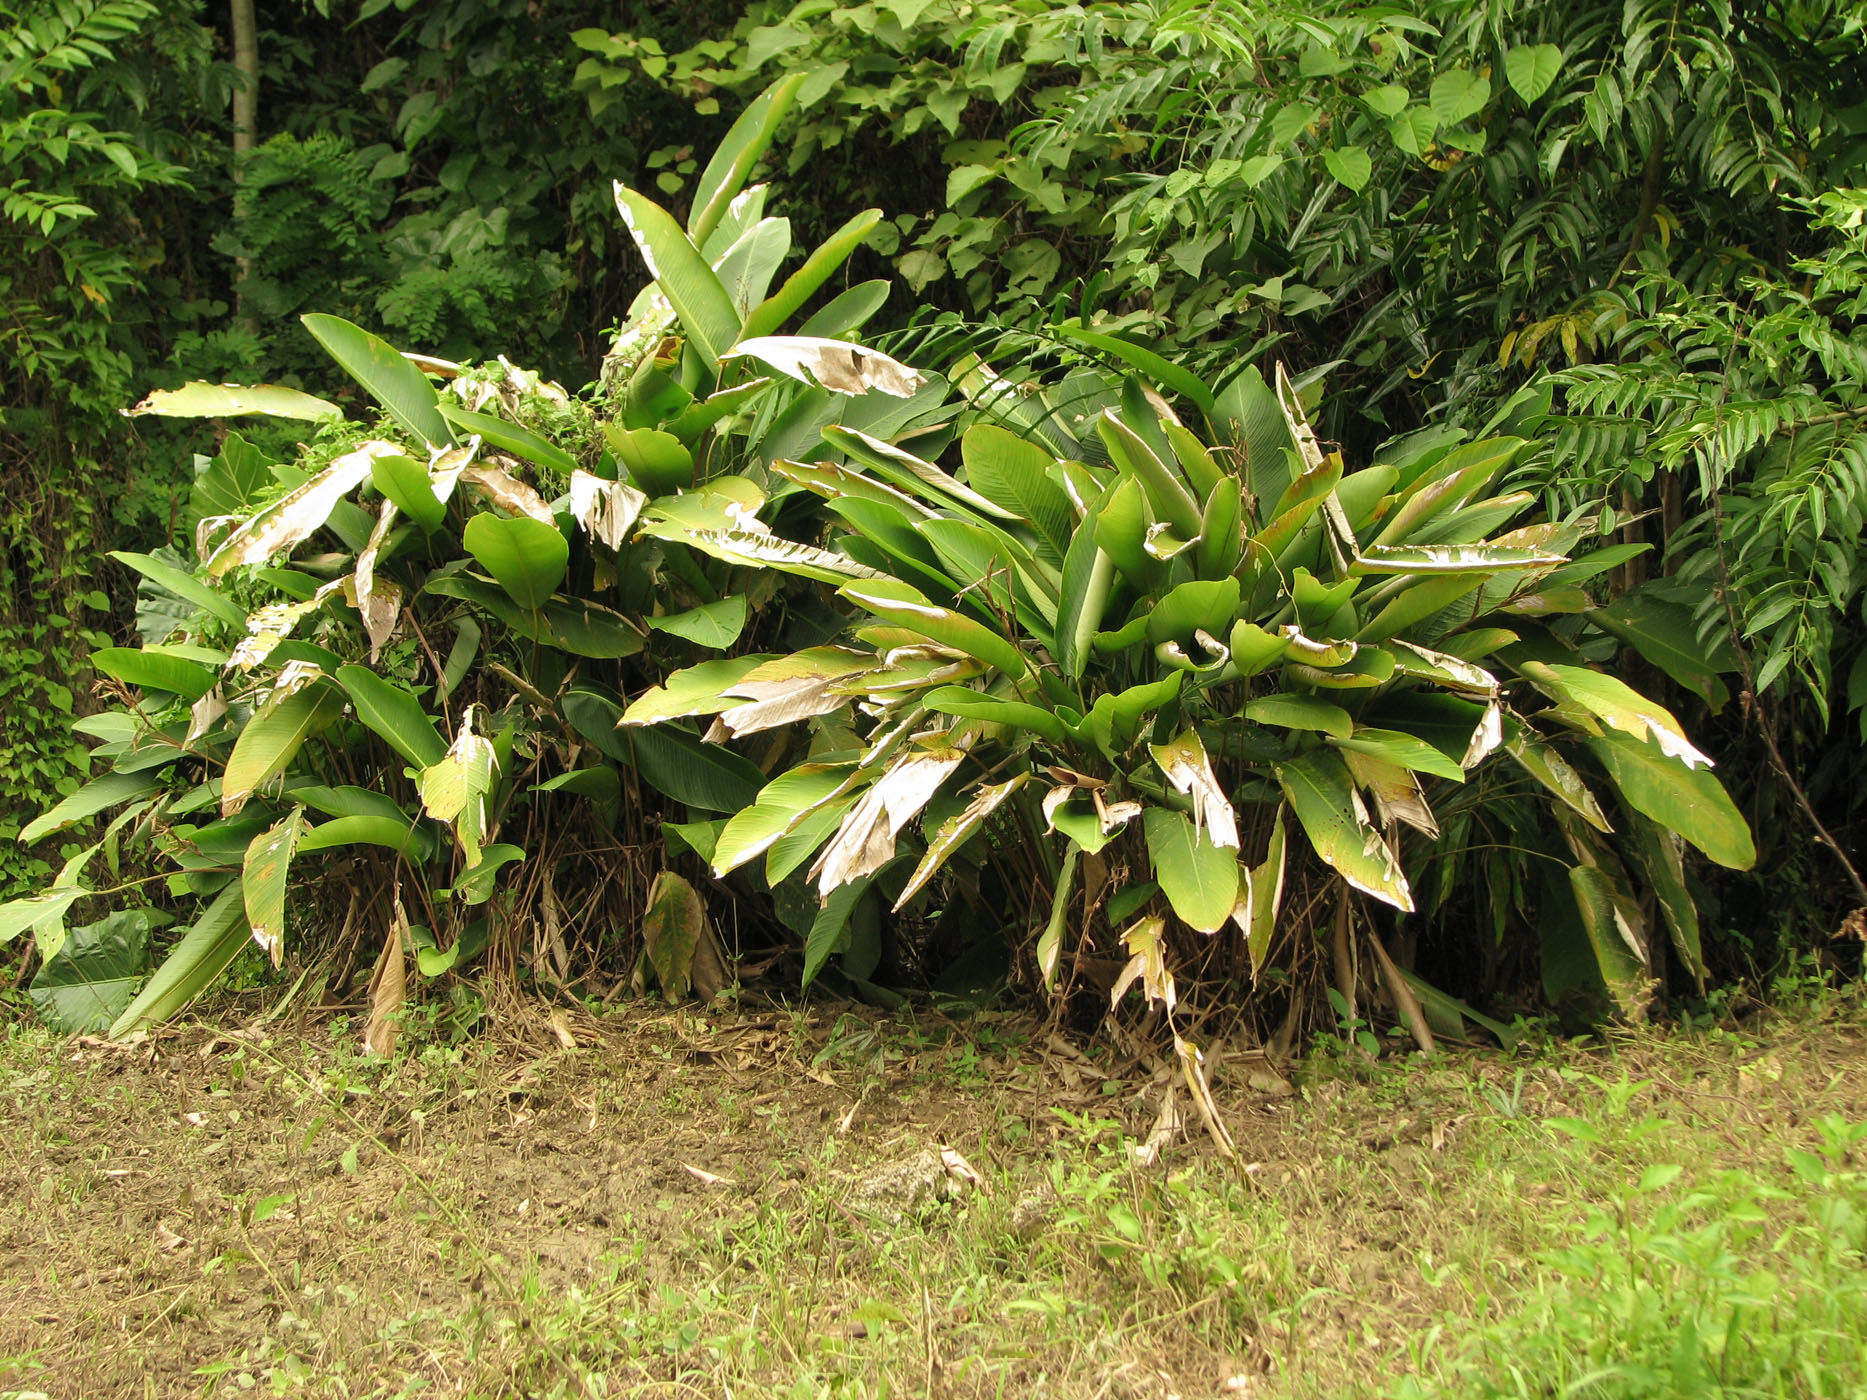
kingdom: Plantae
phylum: Tracheophyta
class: Liliopsida
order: Zingiberales
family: Marantaceae
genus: Phrynium
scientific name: Phrynium rubrum
